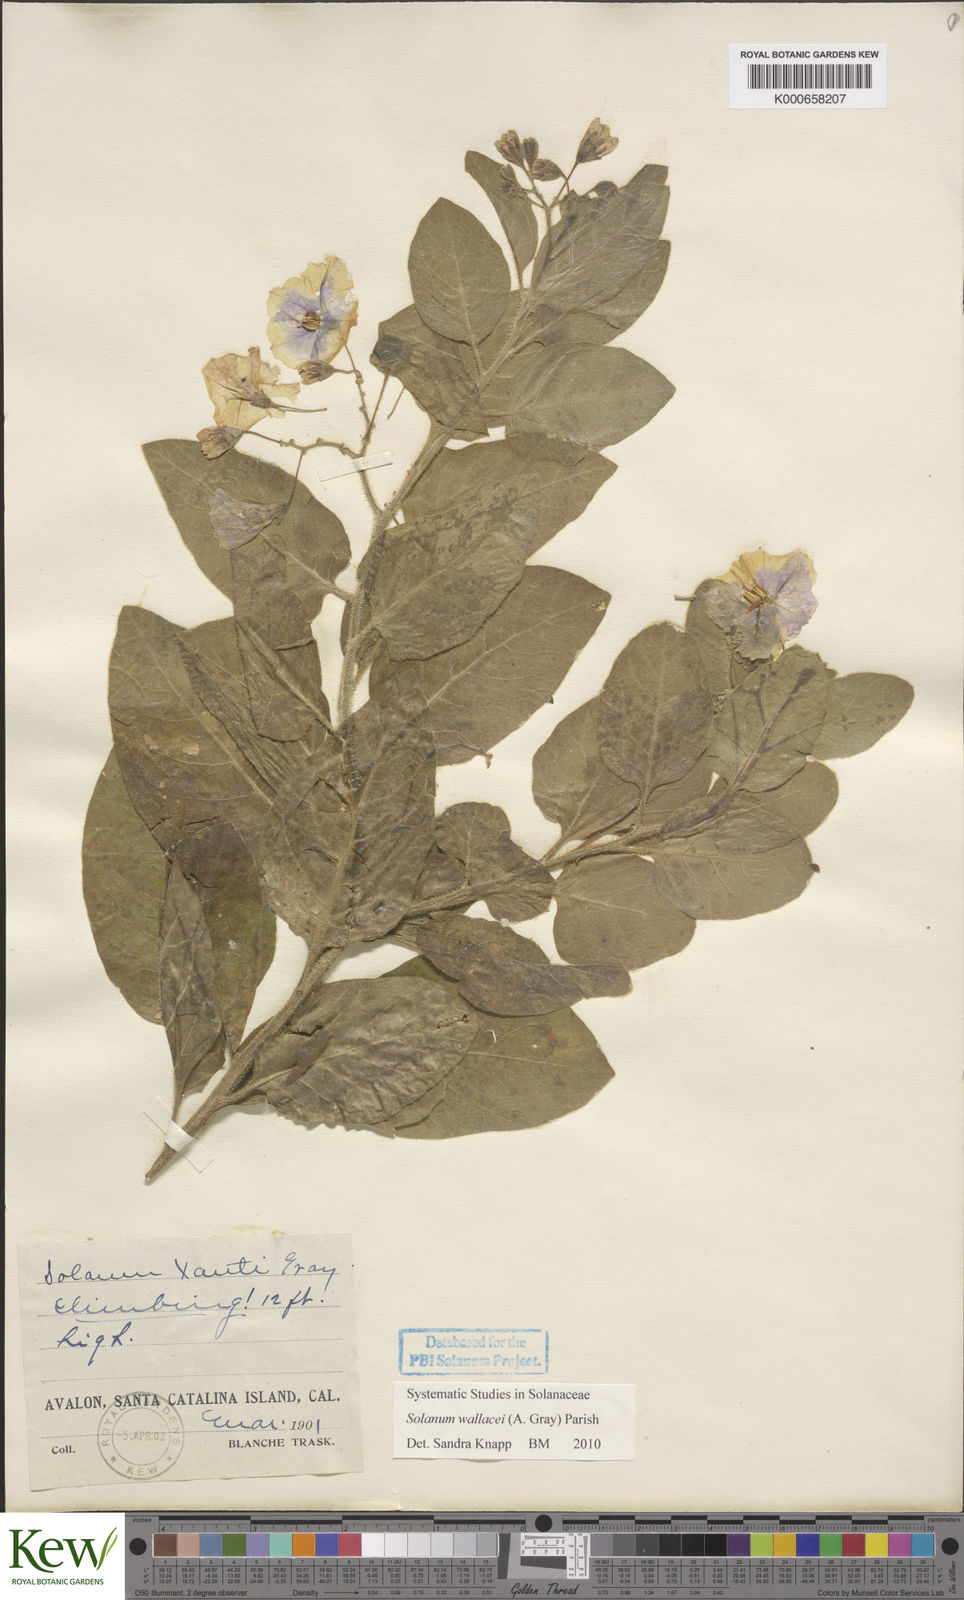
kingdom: Plantae
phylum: Tracheophyta
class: Magnoliopsida
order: Solanales
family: Solanaceae
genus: Solanum
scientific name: Solanum umbelliferum
